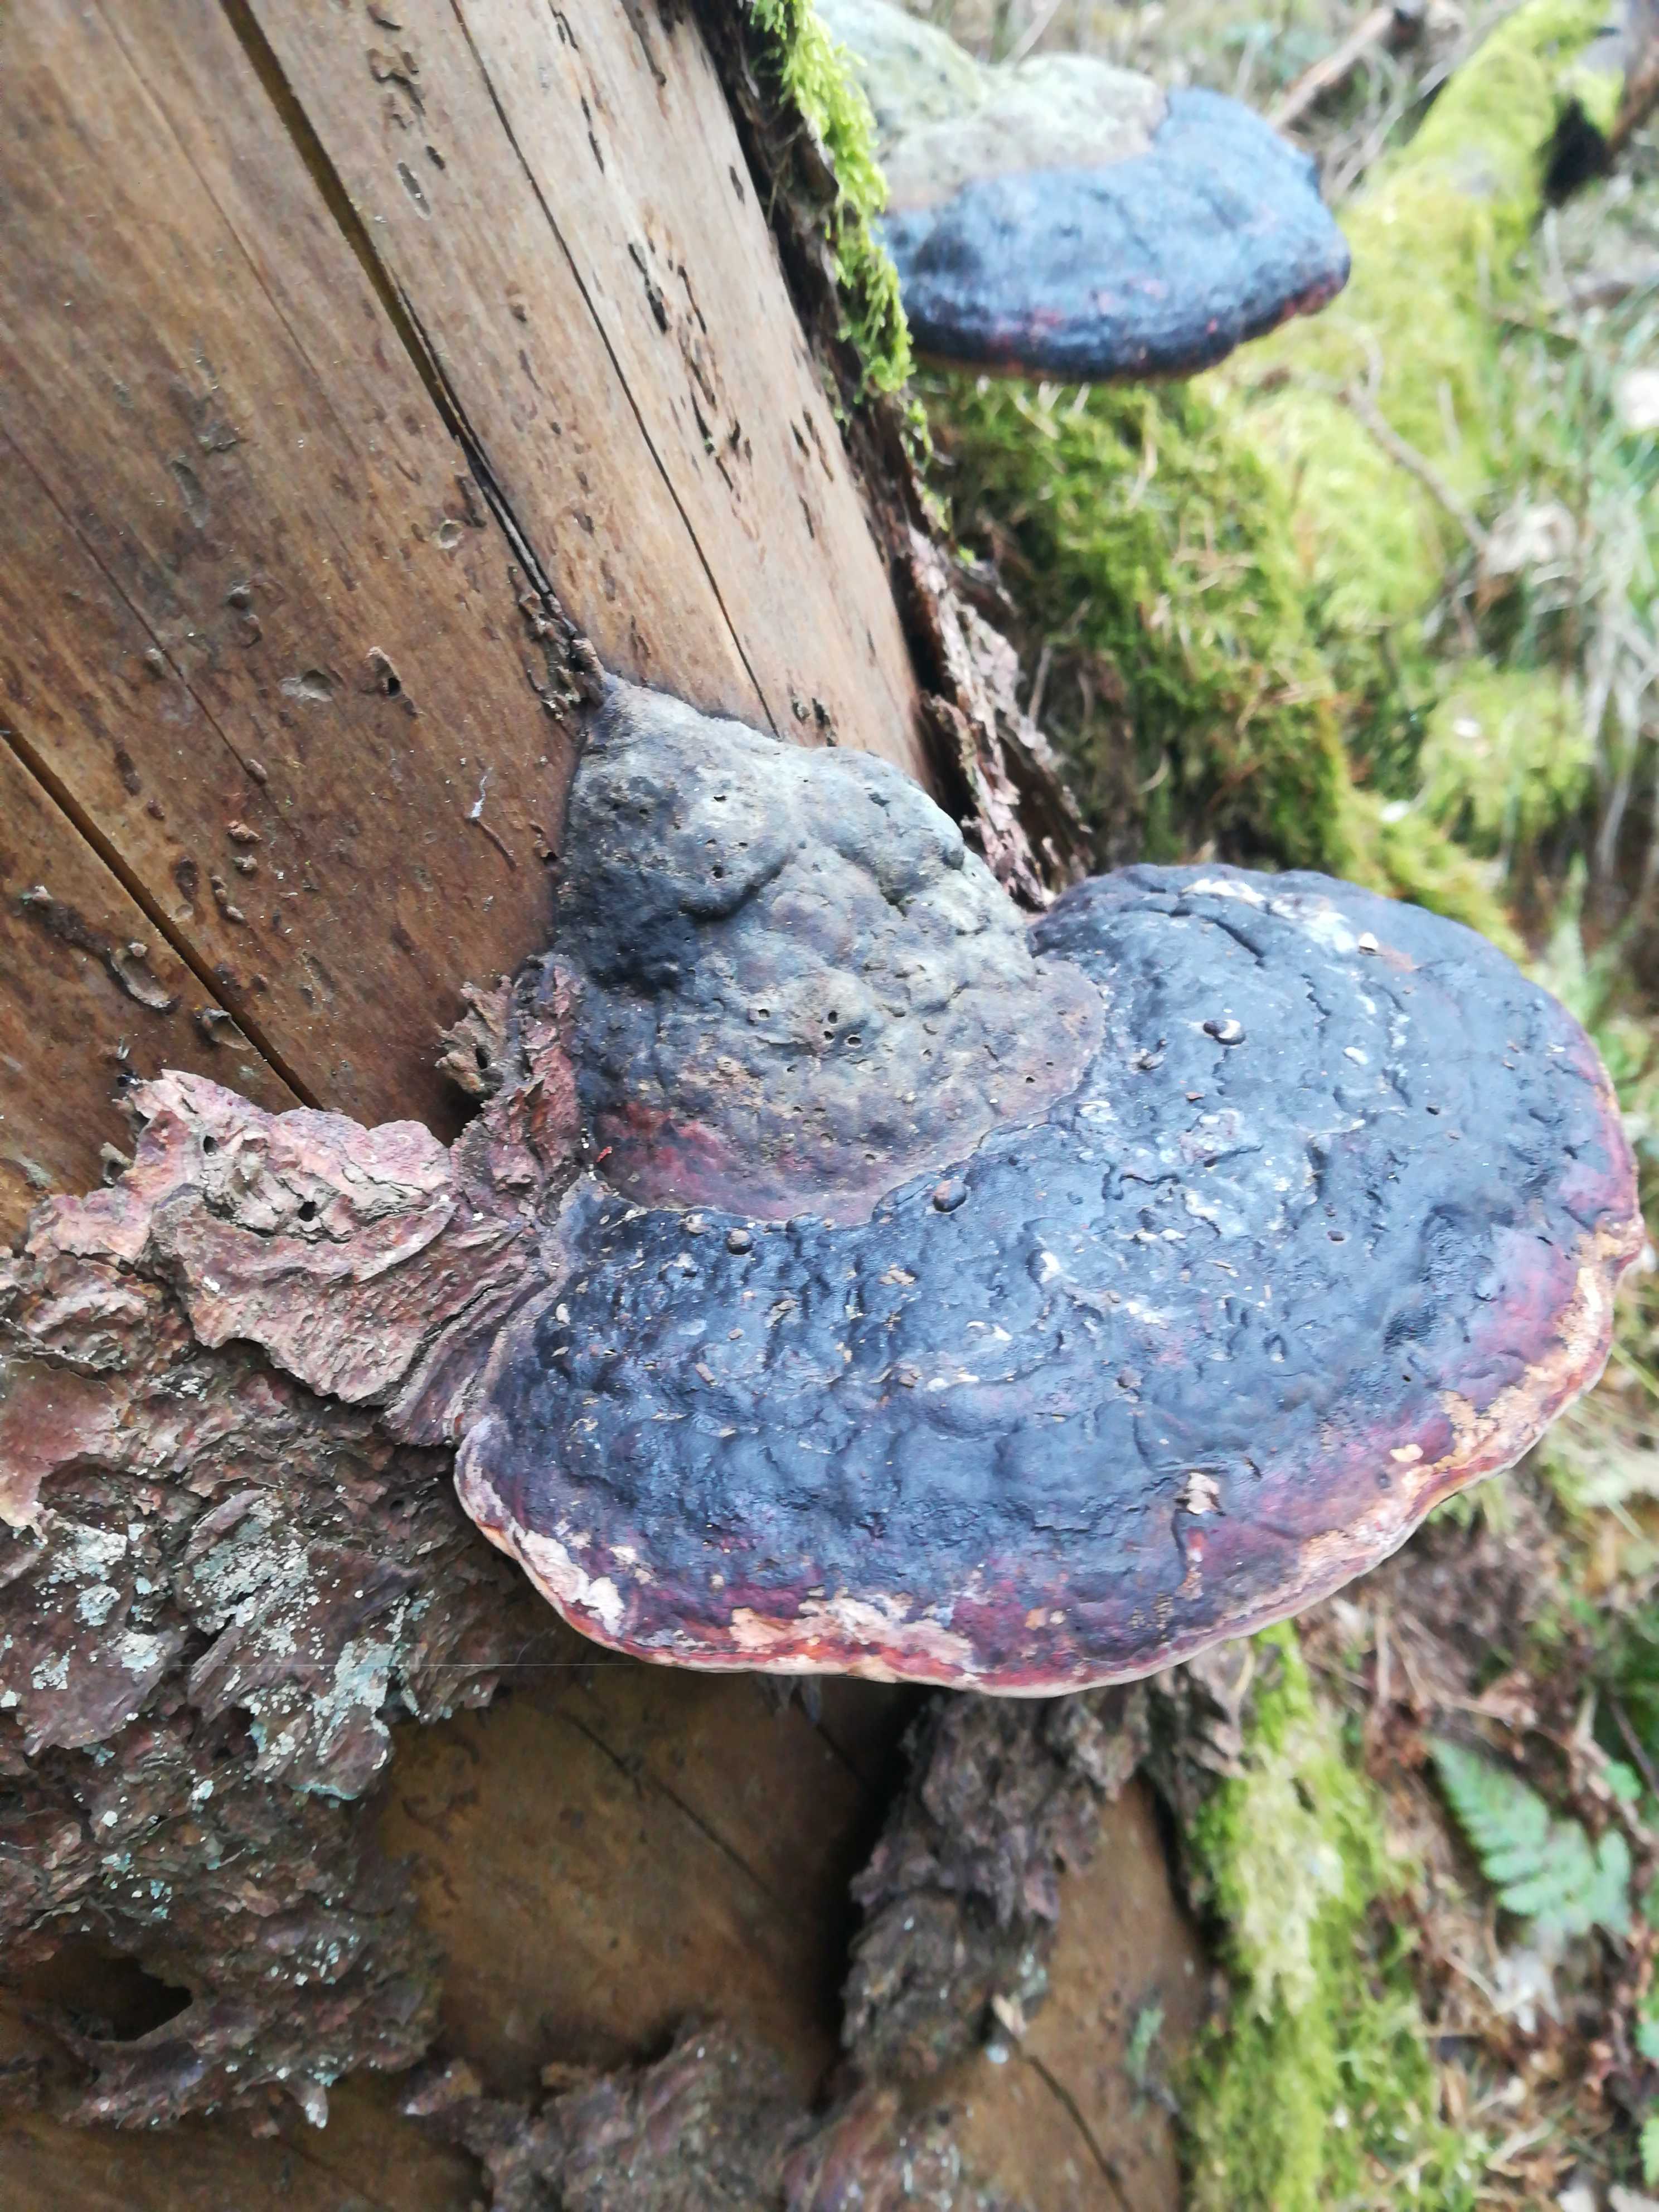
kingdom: Fungi
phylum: Basidiomycota
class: Agaricomycetes
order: Polyporales
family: Fomitopsidaceae
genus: Fomitopsis
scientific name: Fomitopsis pinicola
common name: randbæltet hovporesvamp
